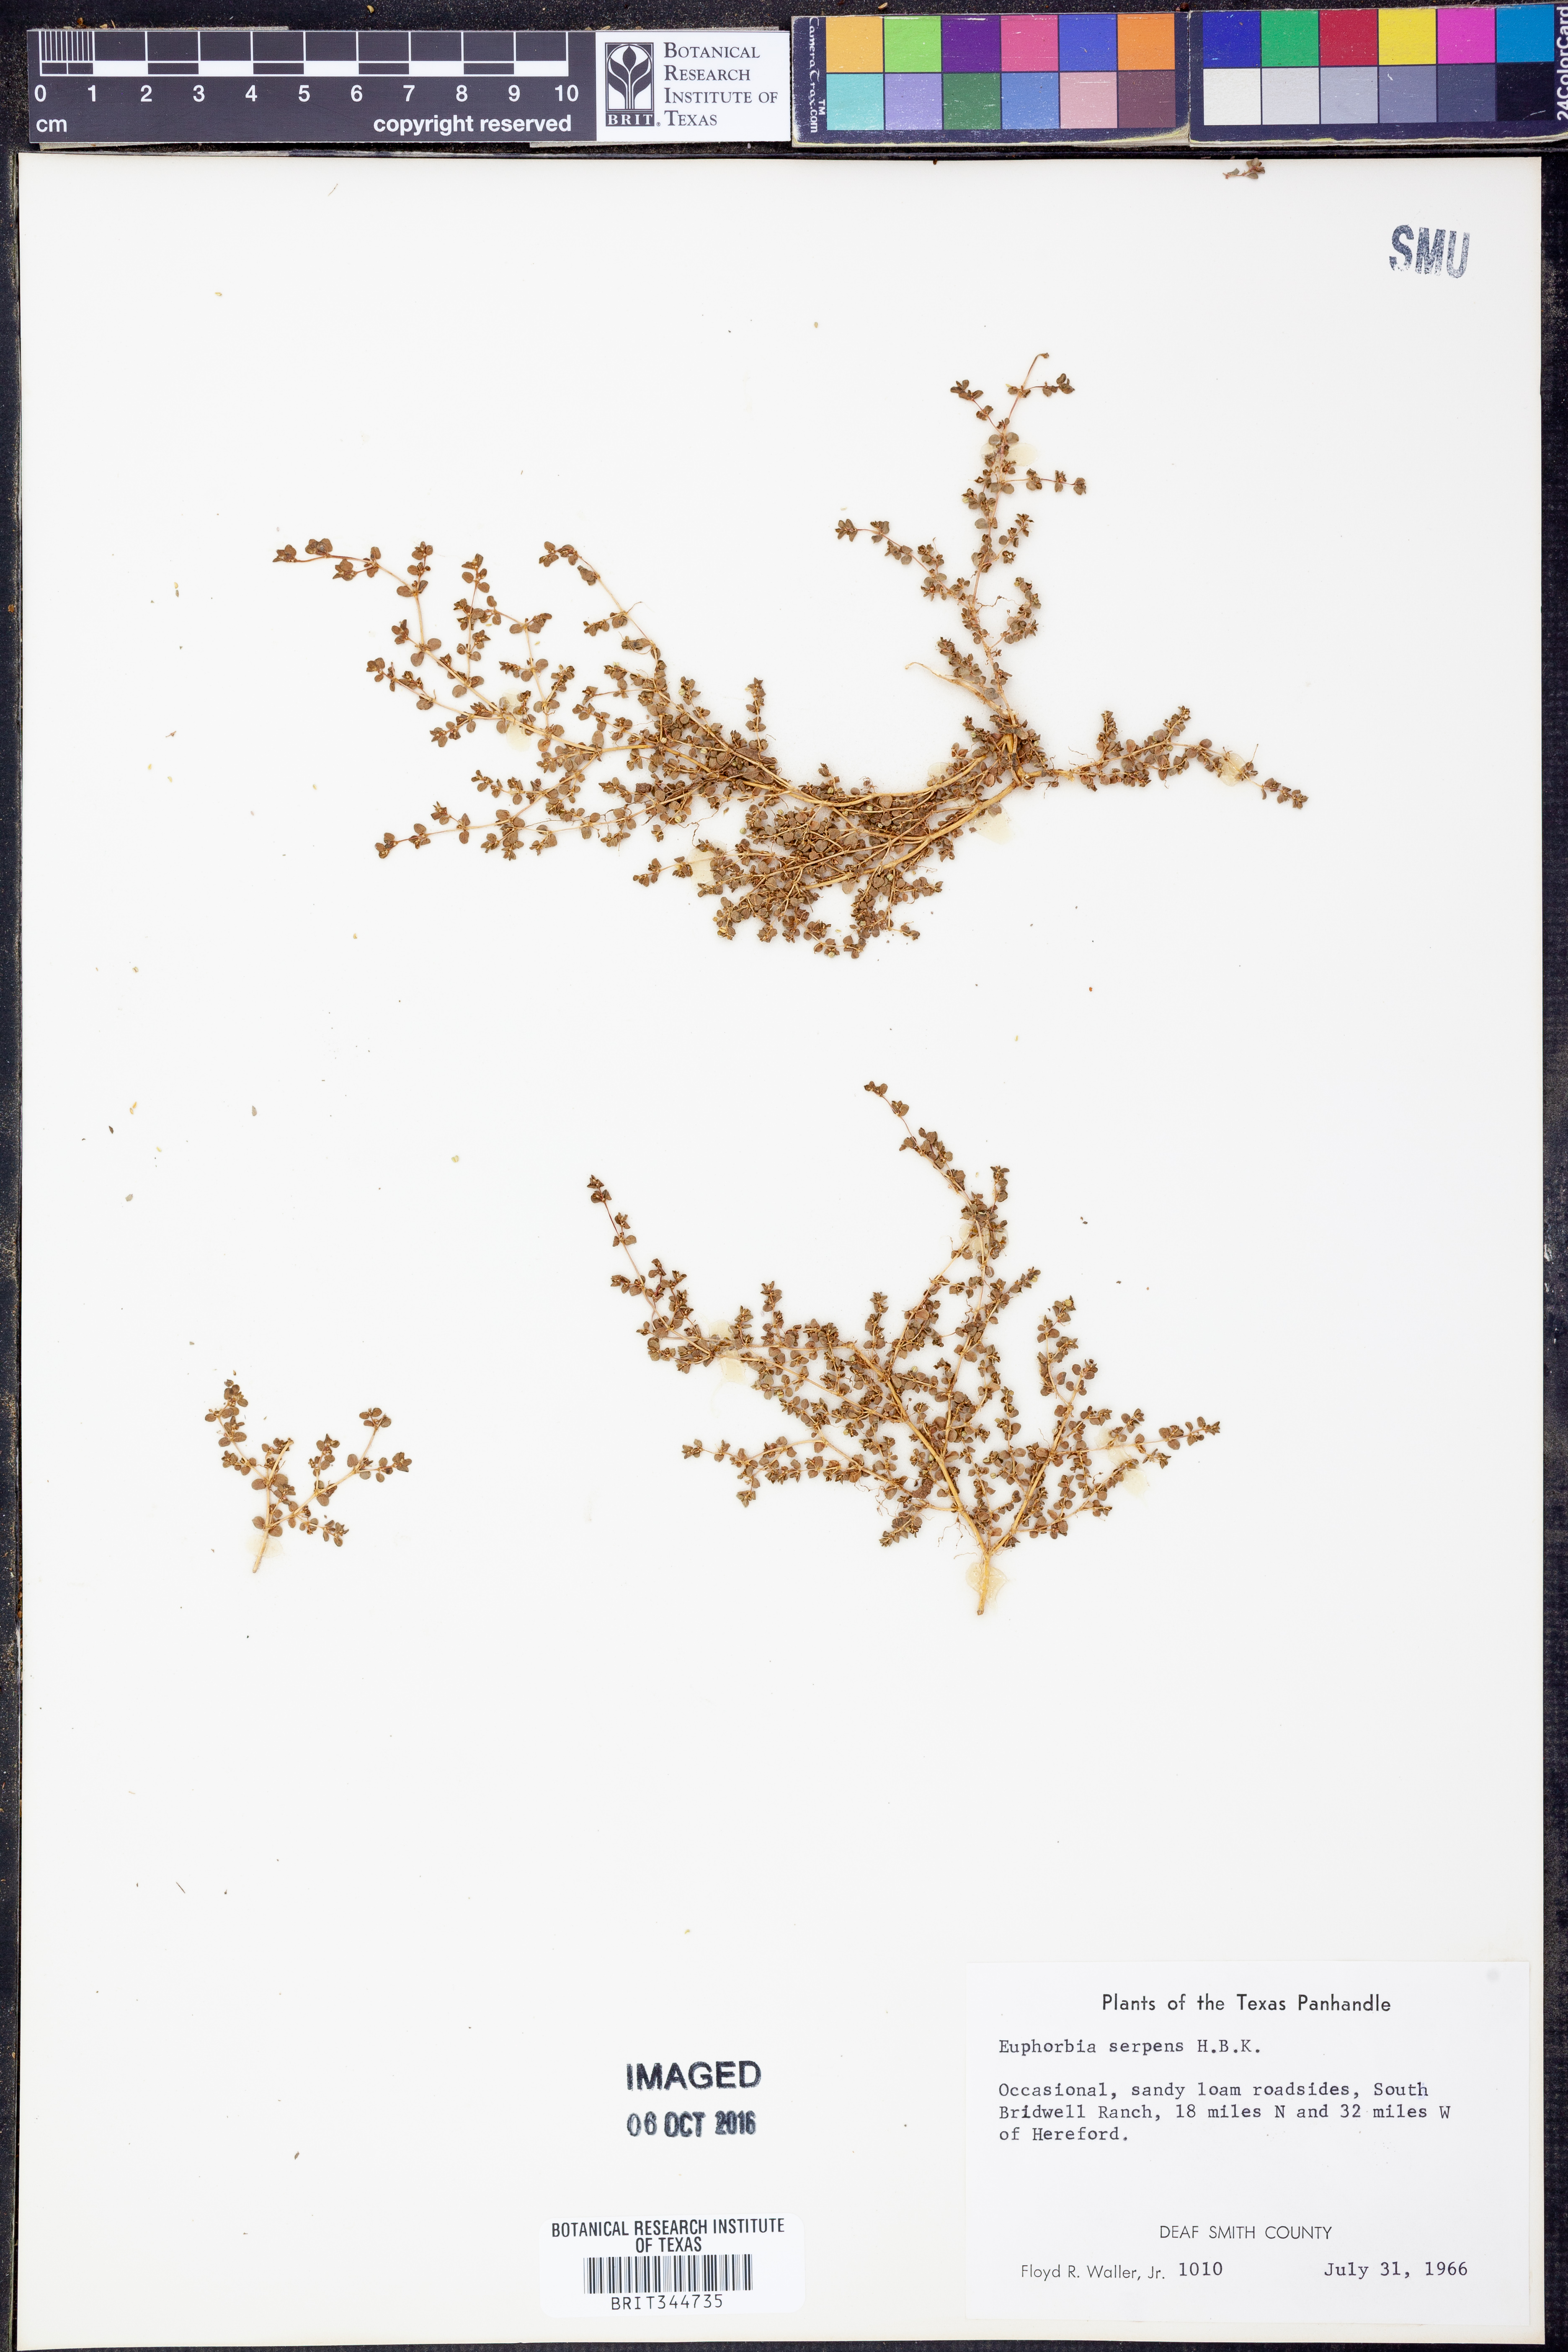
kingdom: Plantae
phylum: Tracheophyta
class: Magnoliopsida
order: Malpighiales
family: Euphorbiaceae
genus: Euphorbia
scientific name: Euphorbia serpens
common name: Matted sandmat
